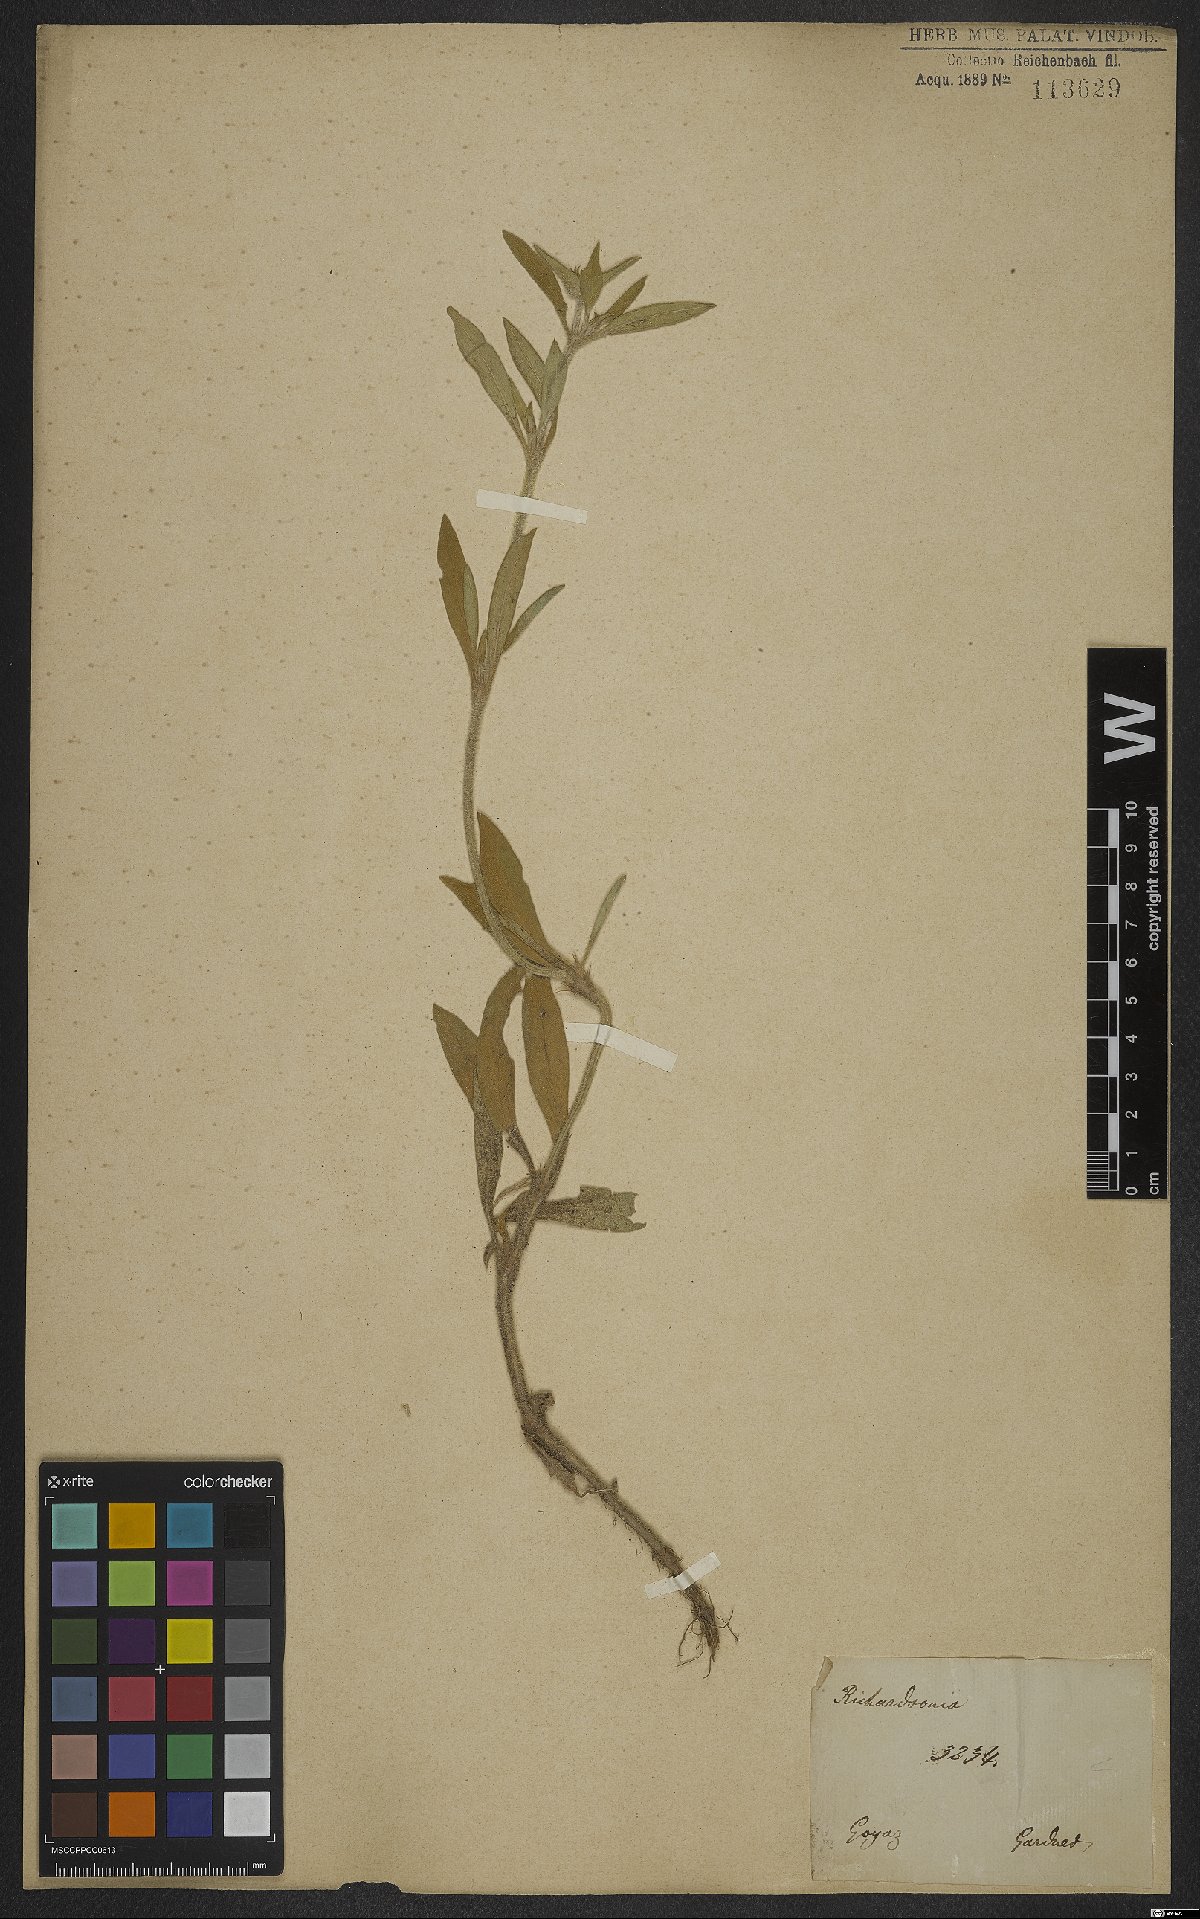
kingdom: Plantae
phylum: Tracheophyta
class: Magnoliopsida
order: Gentianales
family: Rubiaceae
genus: Richardia
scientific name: Richardia grandiflora
